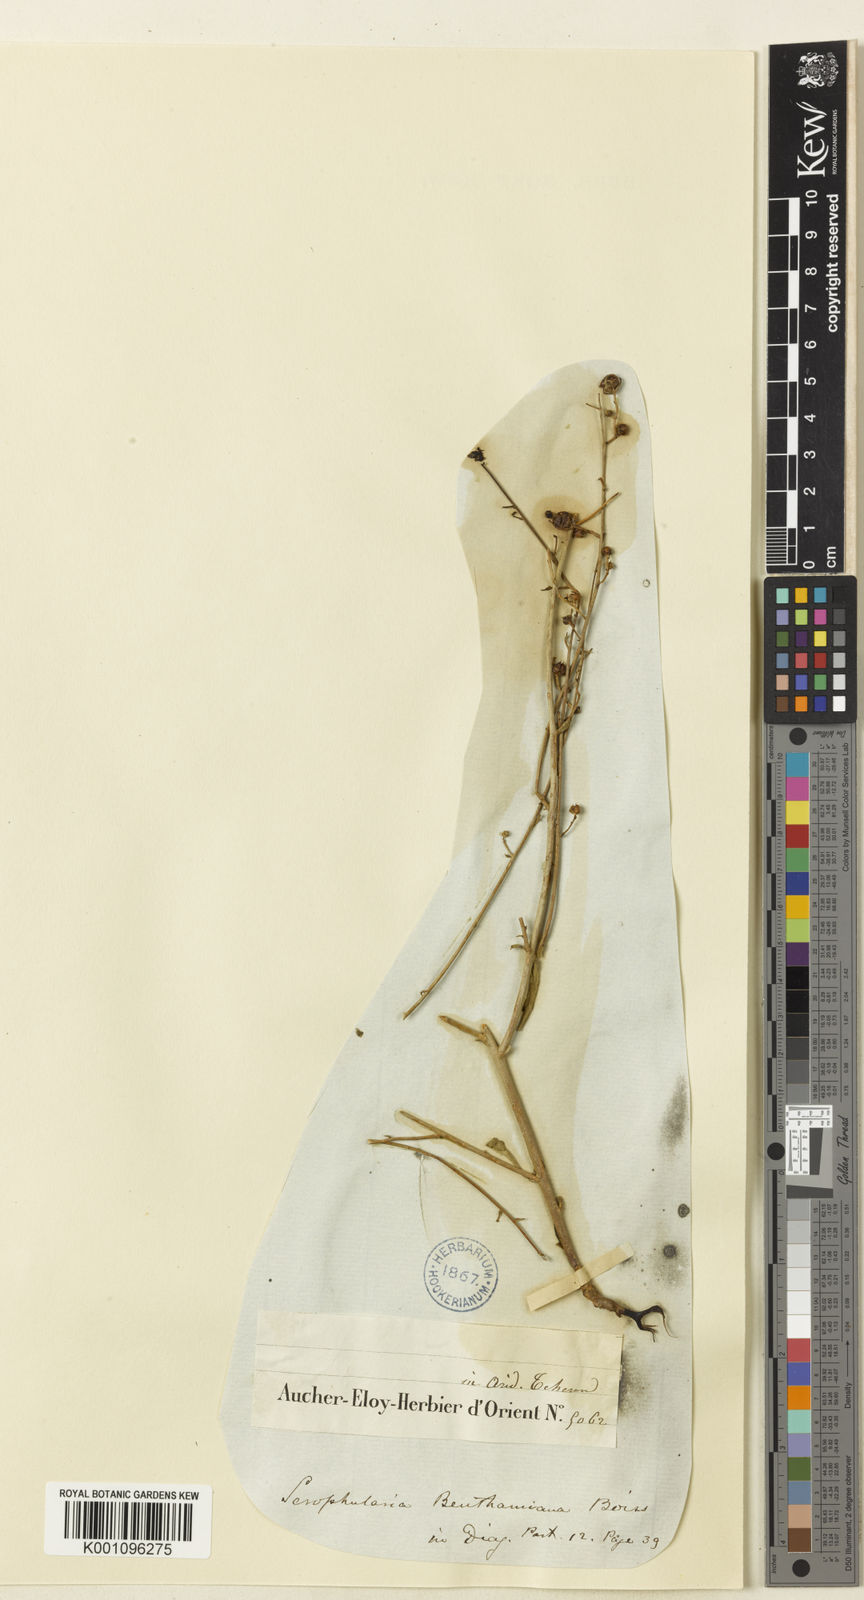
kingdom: Plantae
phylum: Tracheophyta
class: Magnoliopsida
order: Lamiales
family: Scrophulariaceae
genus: Scrophularia
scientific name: Scrophularia hypericifolia
